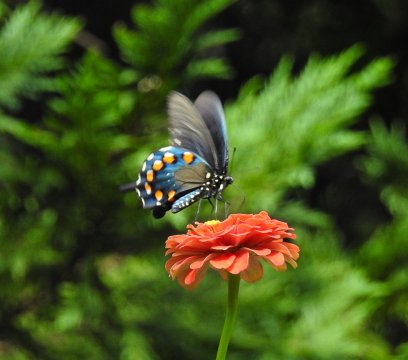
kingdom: Animalia
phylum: Arthropoda
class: Insecta
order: Lepidoptera
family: Papilionidae
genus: Battus
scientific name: Battus philenor
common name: Pipevine Swallowtail
